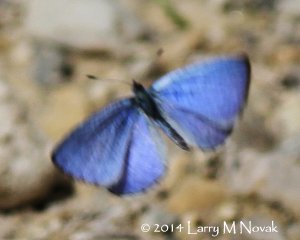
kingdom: Animalia
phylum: Arthropoda
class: Insecta
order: Lepidoptera
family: Lycaenidae
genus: Celastrina
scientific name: Celastrina serotina
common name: Cherry Gall Azure
